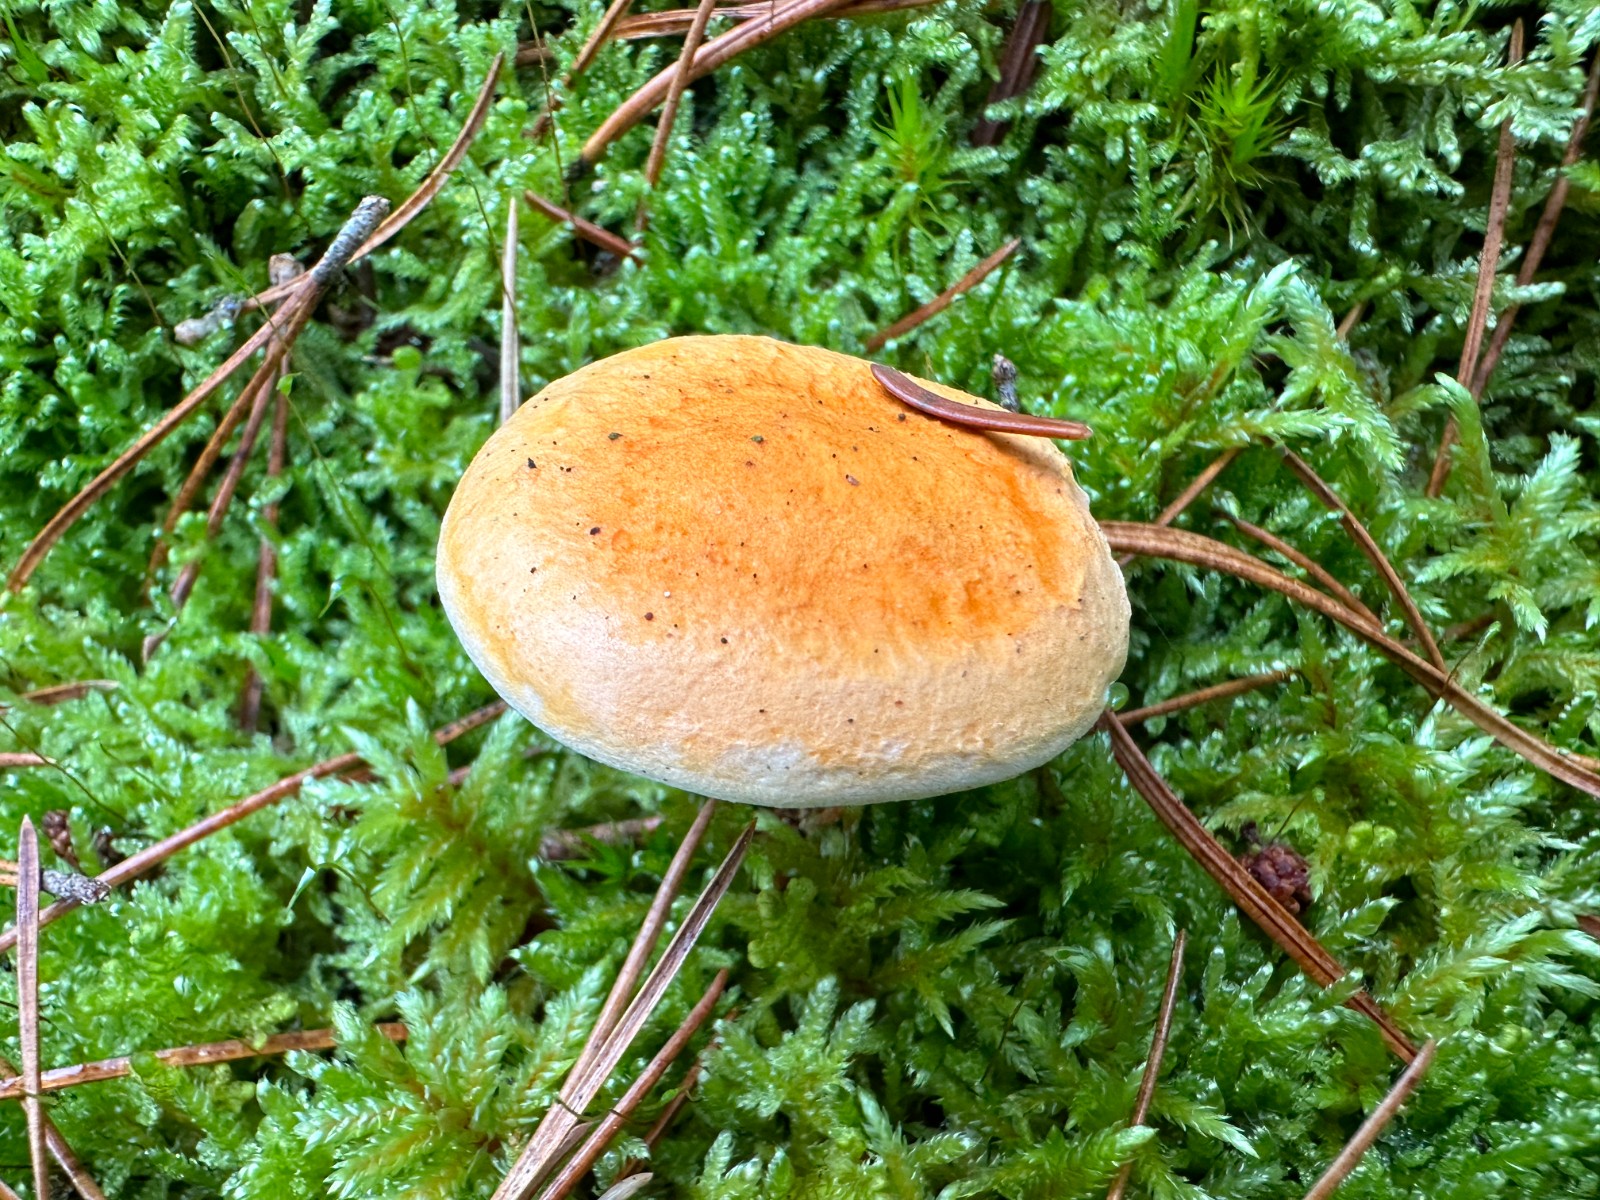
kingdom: Fungi
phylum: Basidiomycota
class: Agaricomycetes
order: Boletales
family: Hygrophoropsidaceae
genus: Hygrophoropsis
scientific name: Hygrophoropsis aurantiaca
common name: almindelig orangekantarel
